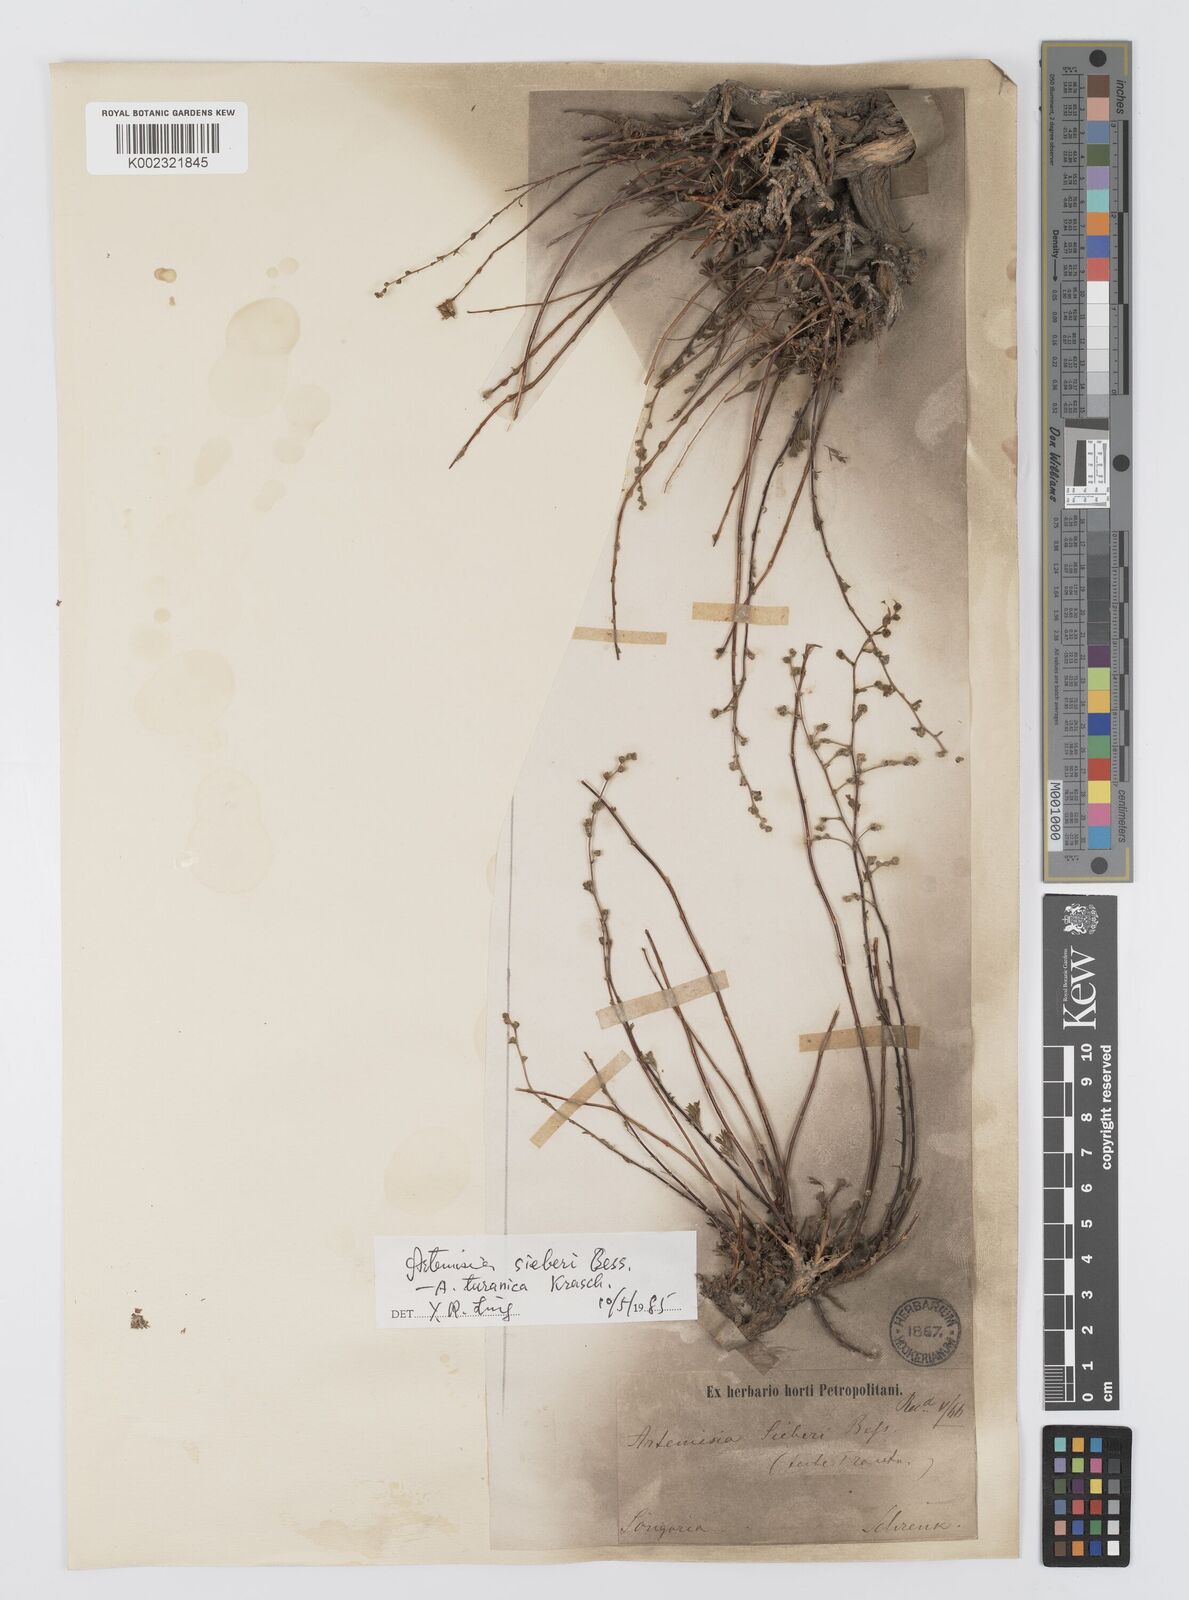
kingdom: Plantae
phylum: Tracheophyta
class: Magnoliopsida
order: Asterales
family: Asteraceae
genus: Artemisia
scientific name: Artemisia sieberi
